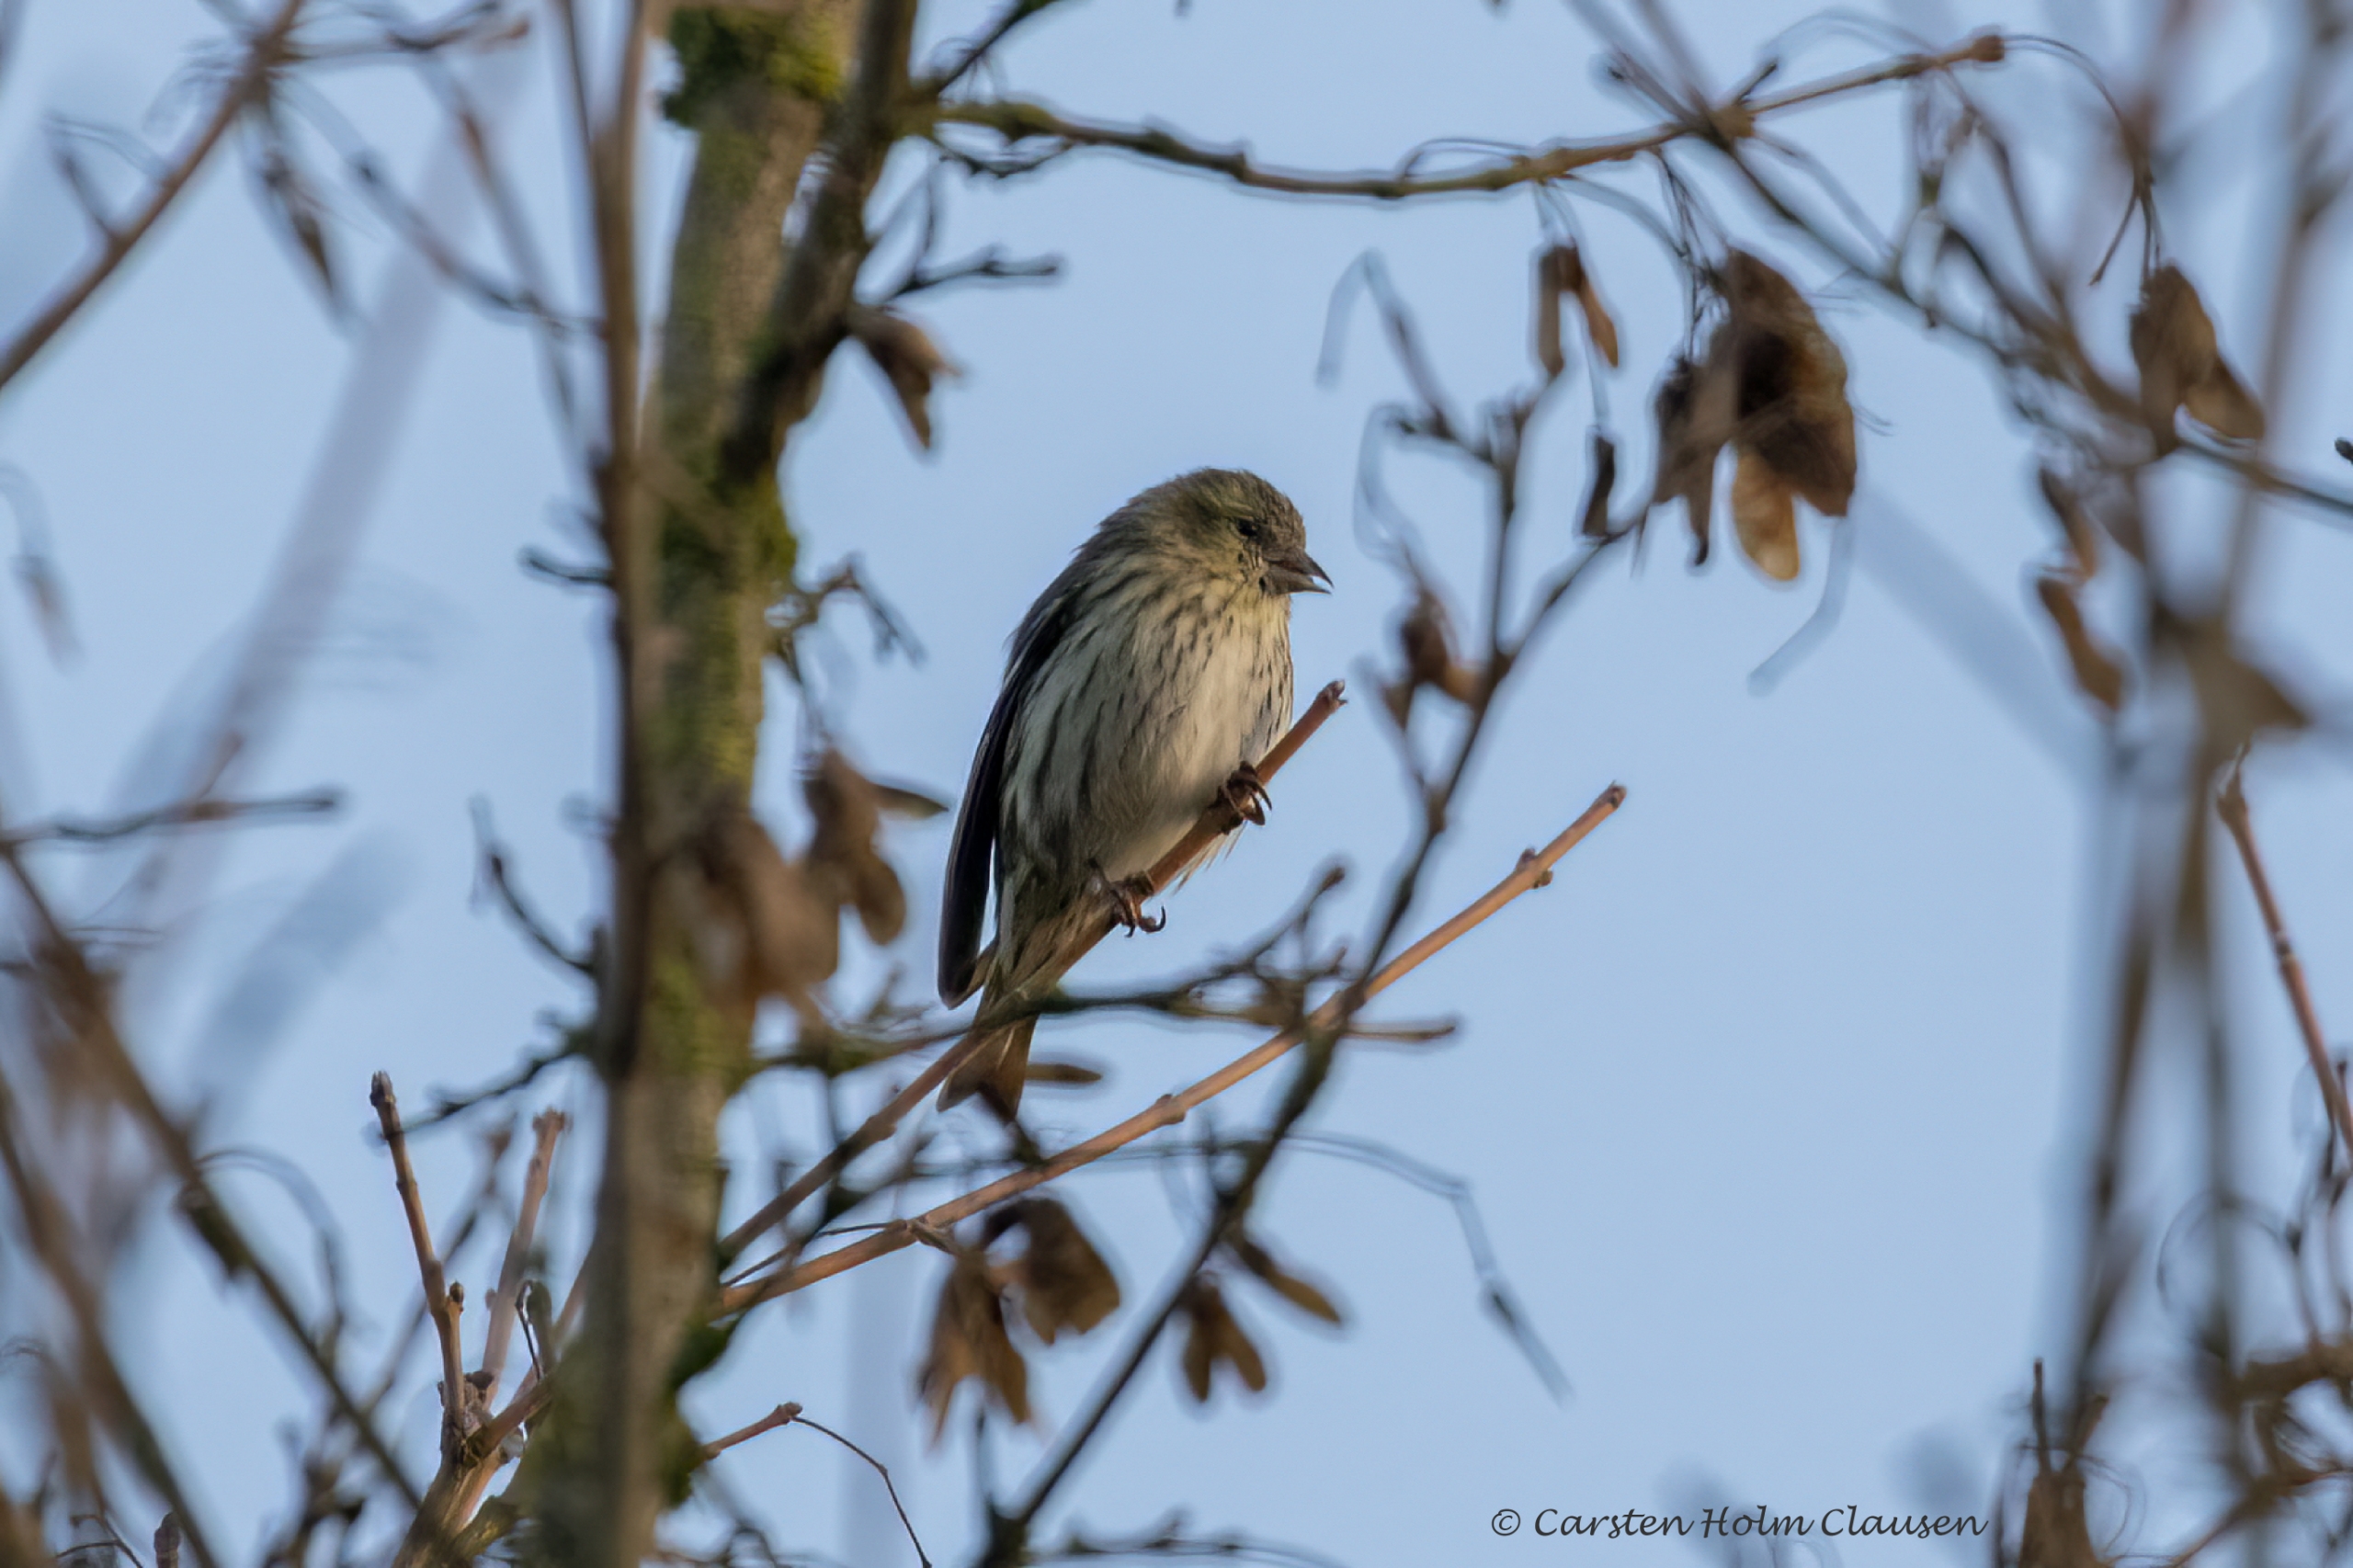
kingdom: Animalia
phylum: Chordata
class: Aves
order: Passeriformes
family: Fringillidae
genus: Spinus
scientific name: Spinus spinus
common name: Grønsisken
